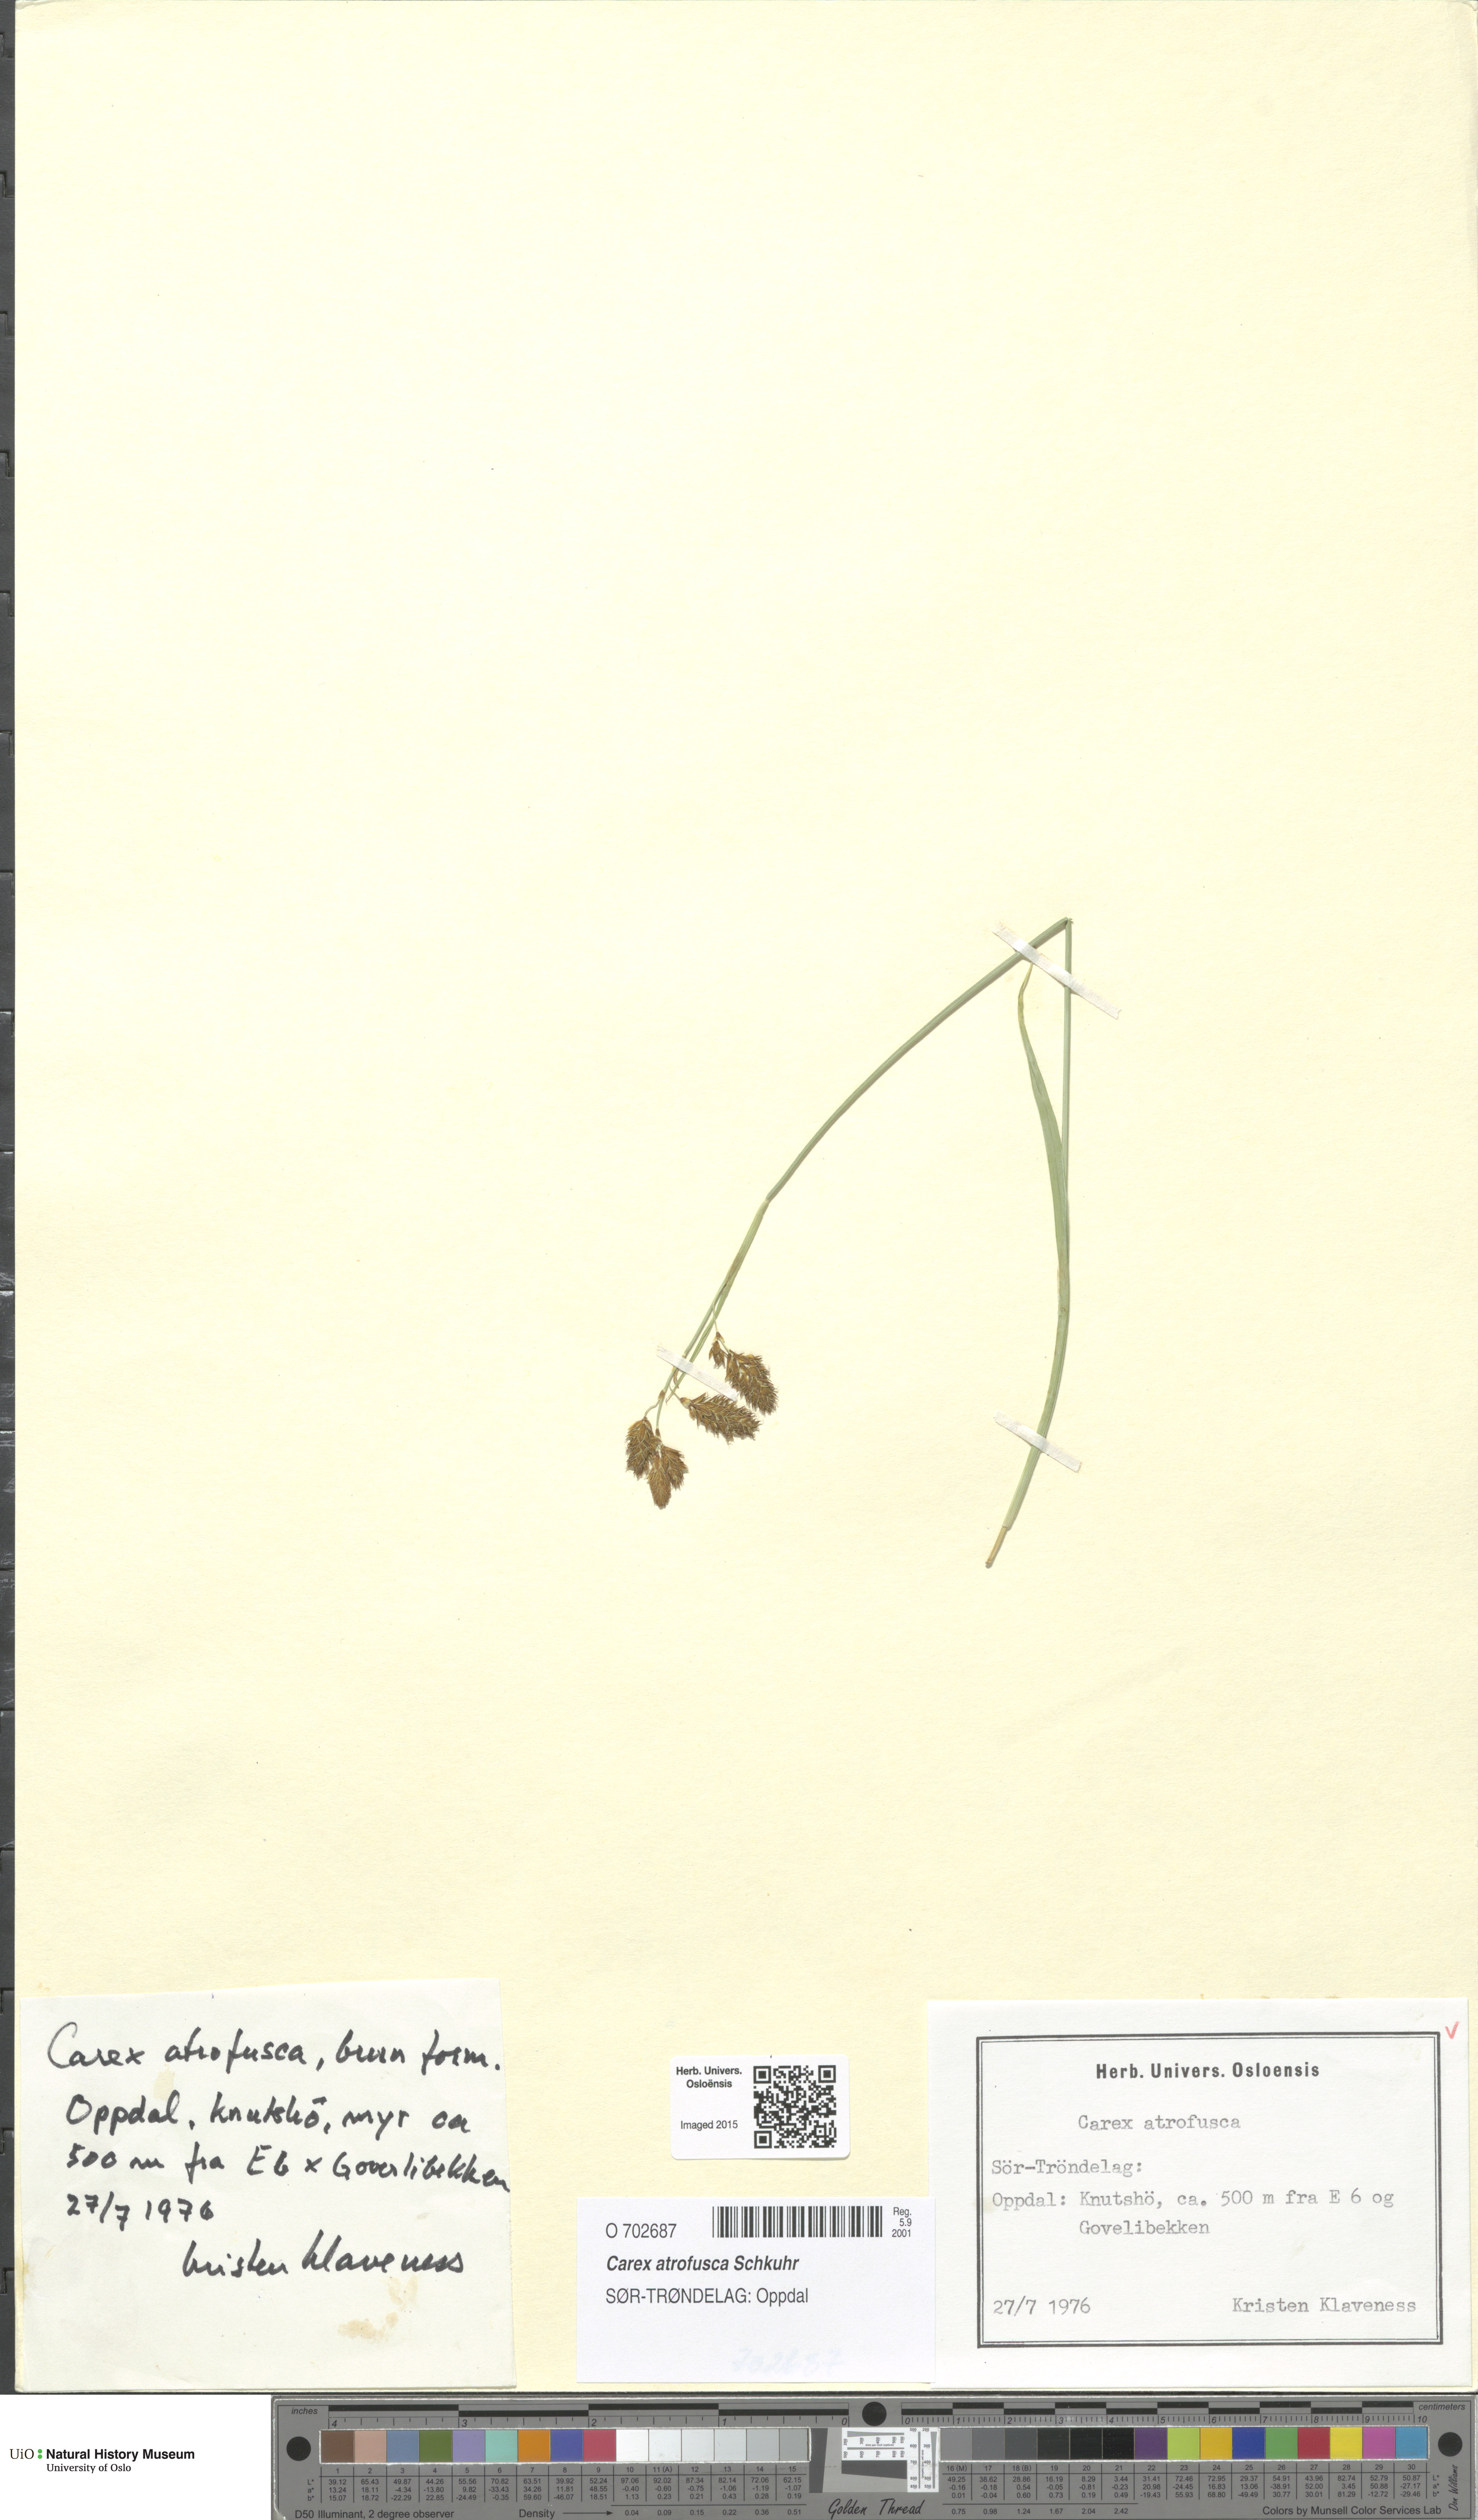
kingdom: Plantae
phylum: Tracheophyta
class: Liliopsida
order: Poales
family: Cyperaceae
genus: Carex
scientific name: Carex atrofusca
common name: Scorched alpine-sedge
